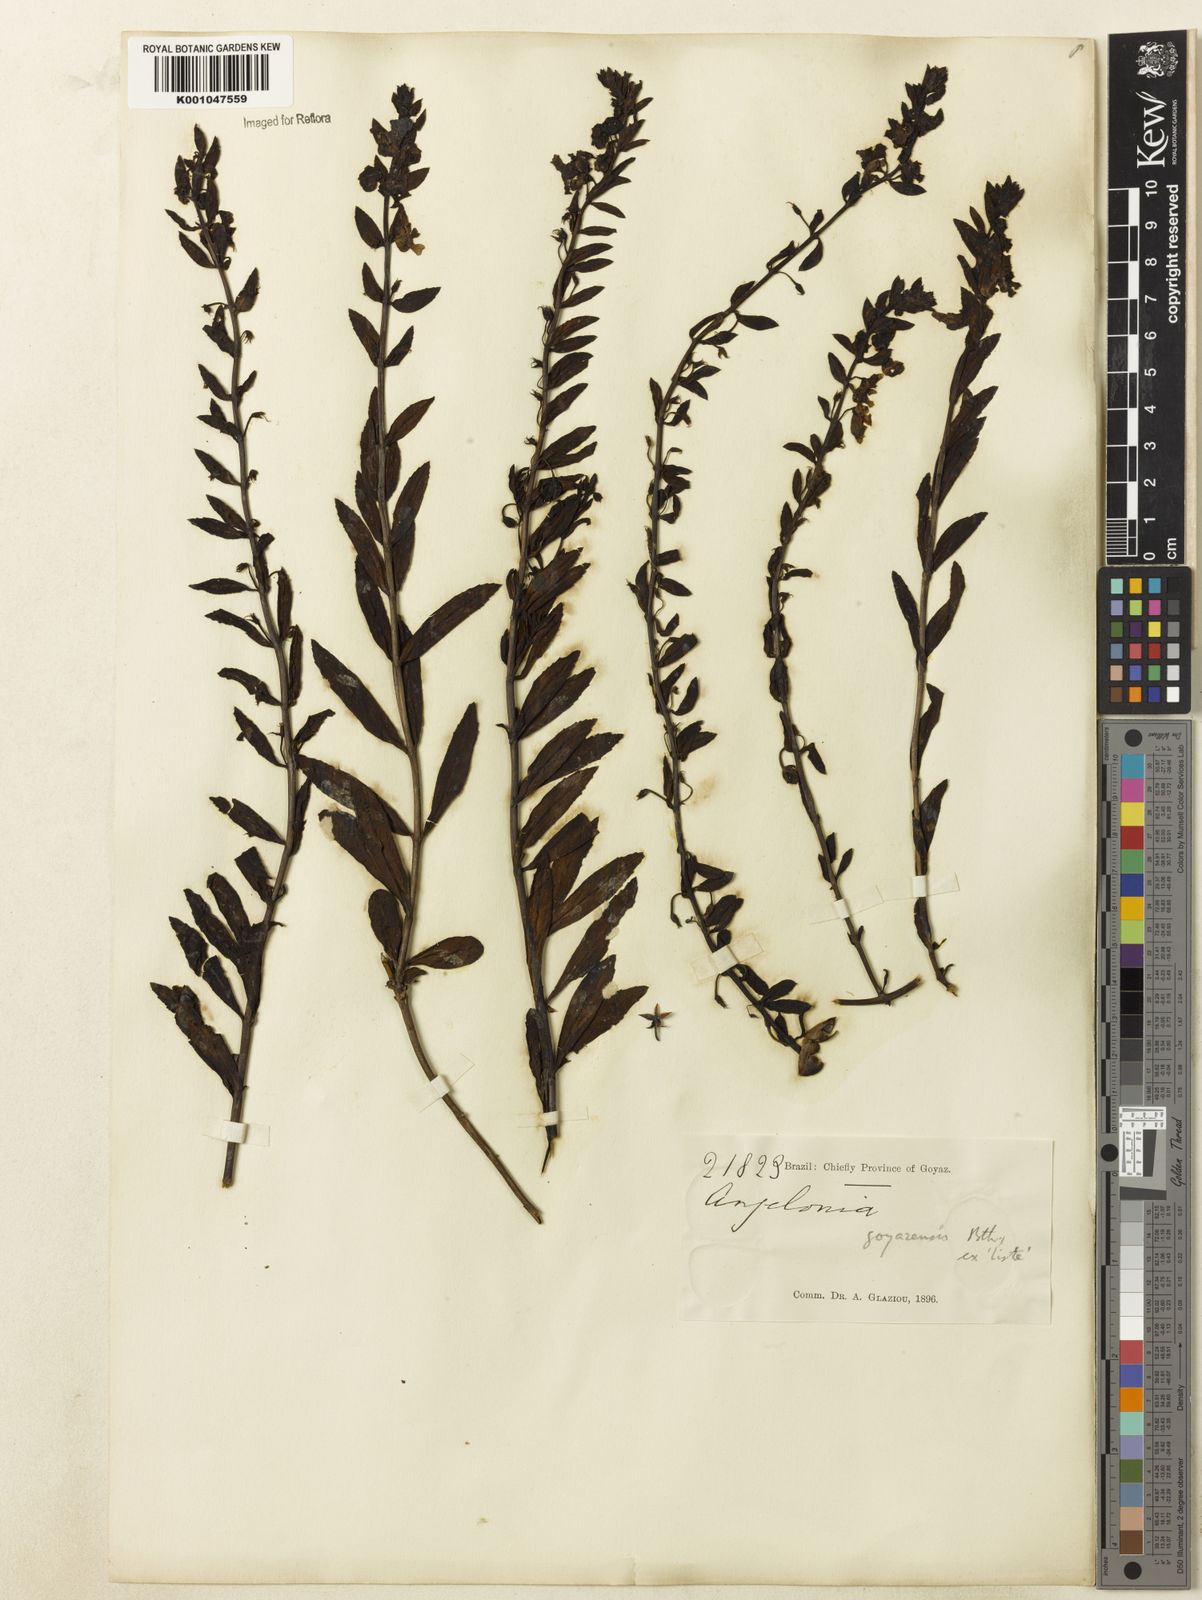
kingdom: Plantae
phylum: Tracheophyta
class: Magnoliopsida
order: Lamiales
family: Plantaginaceae
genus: Angelonia
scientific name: Angelonia goyazensis
